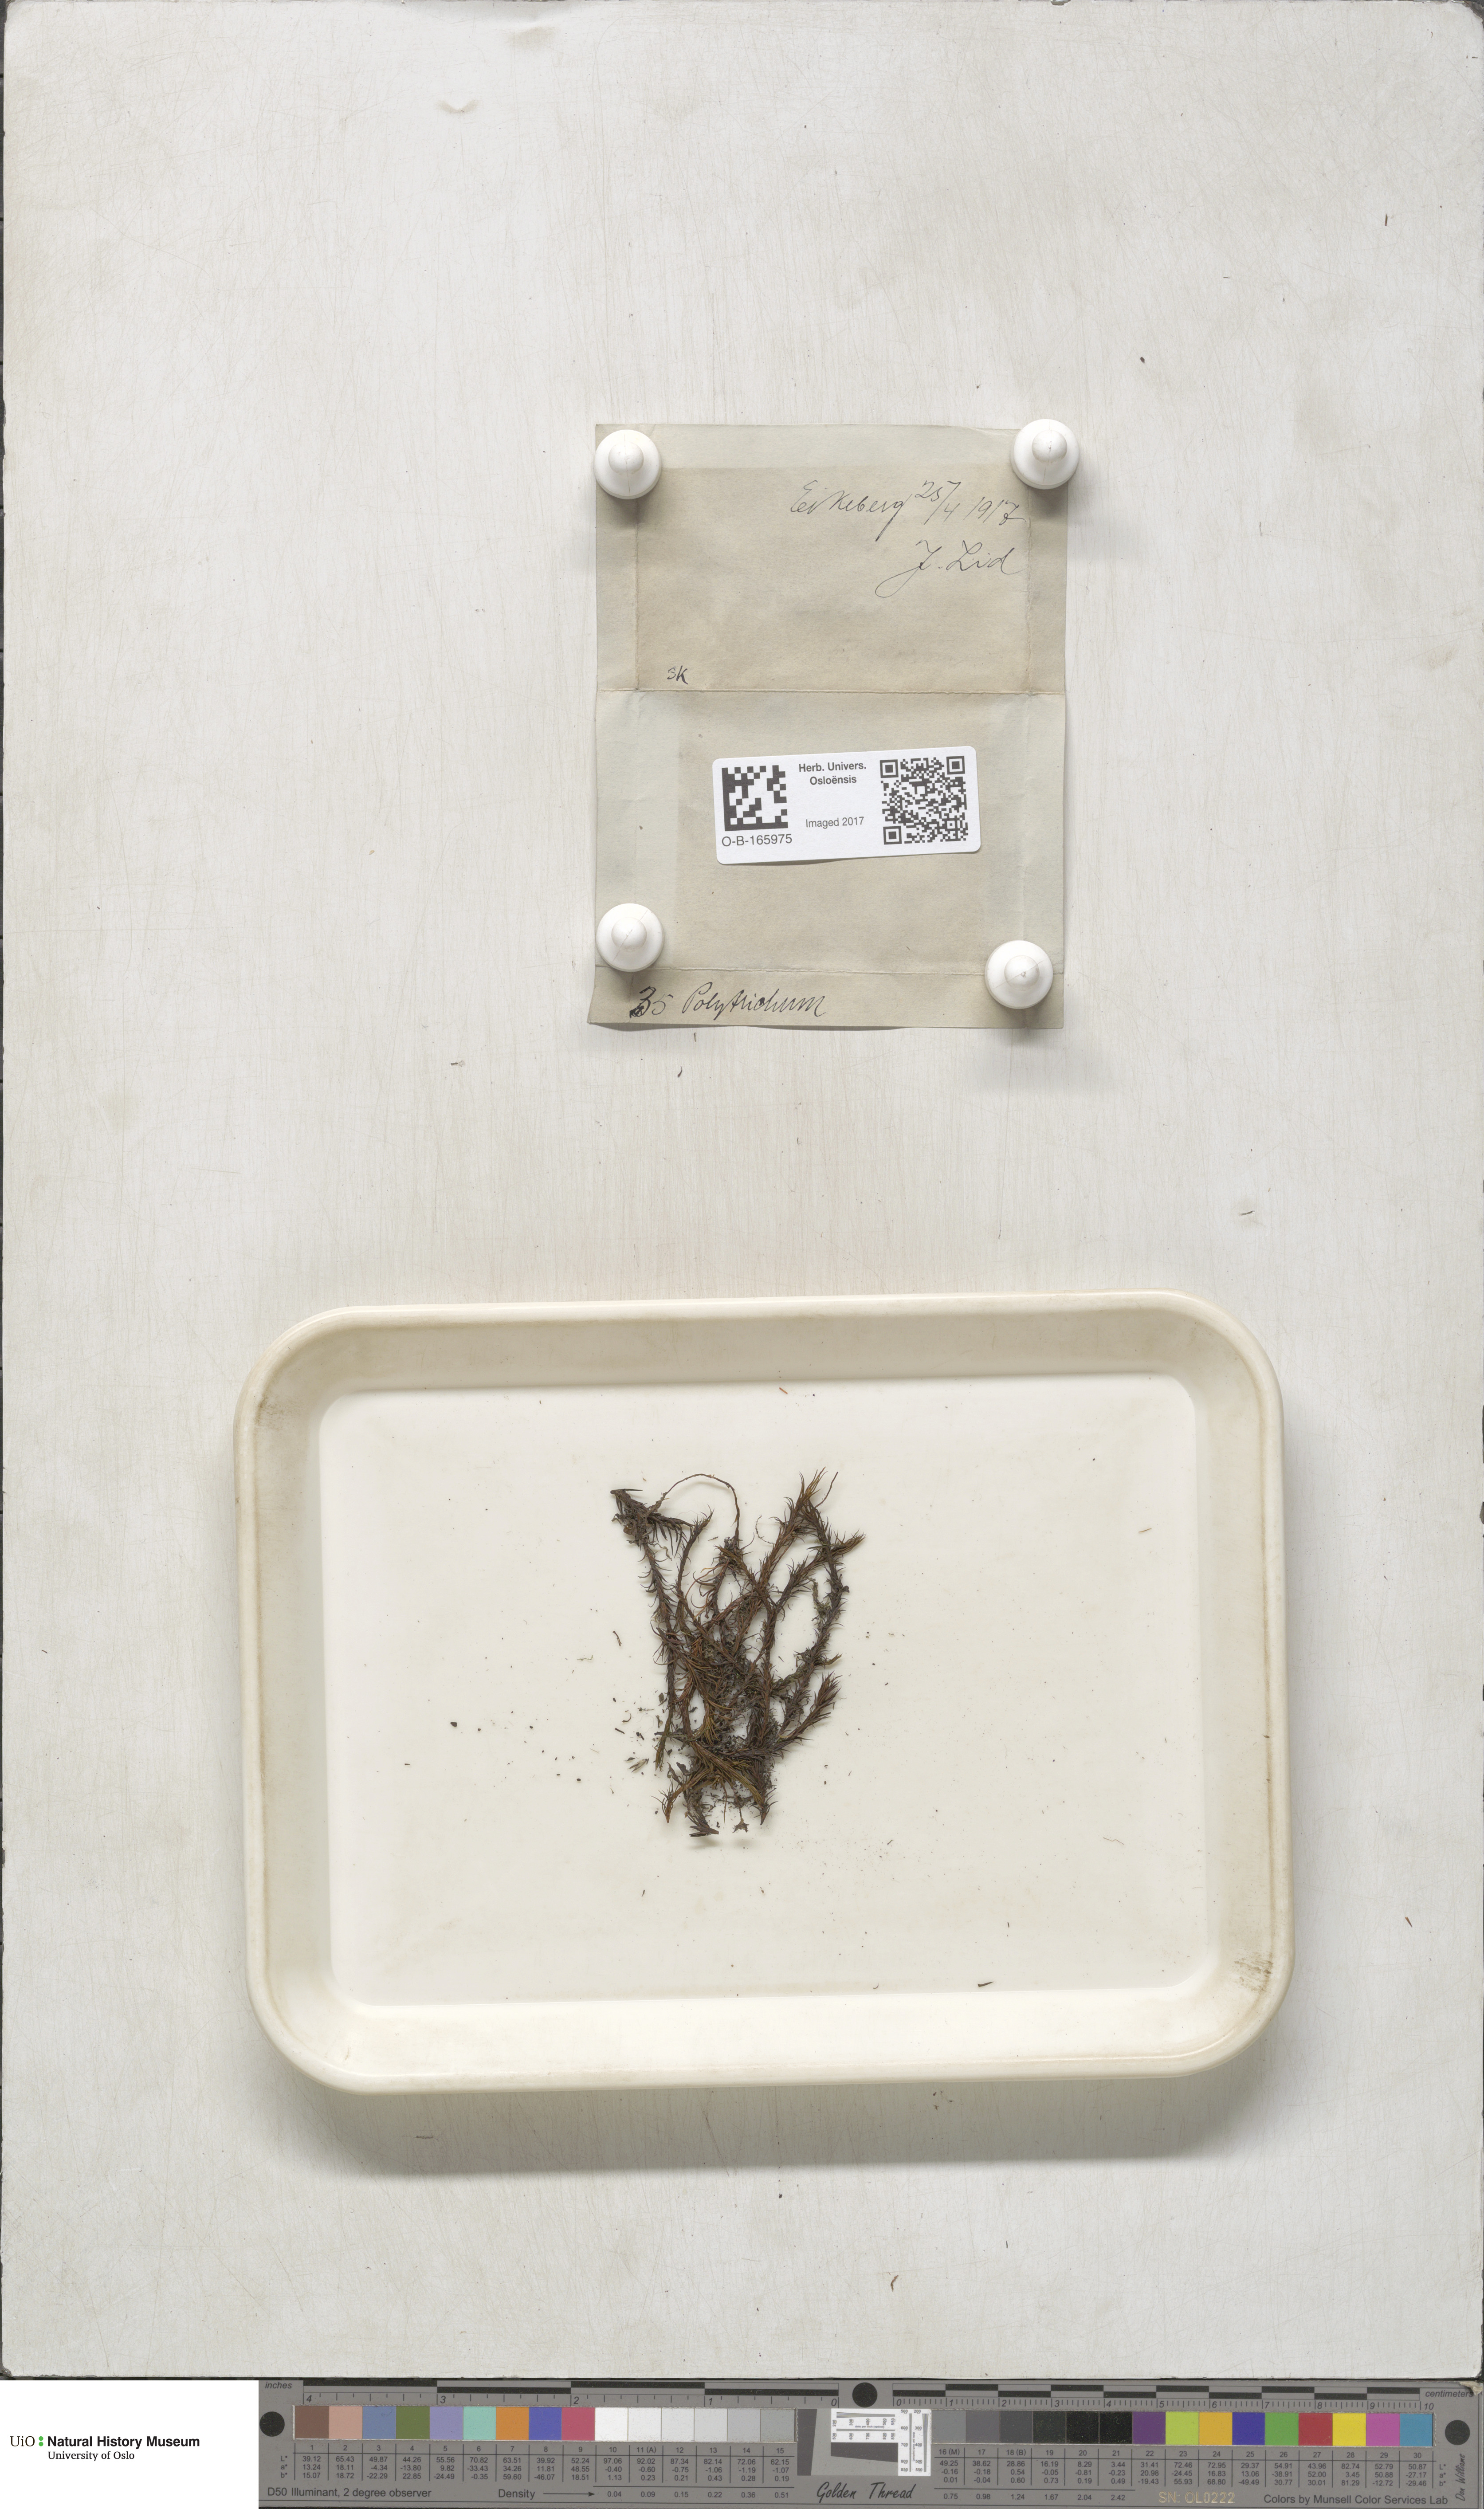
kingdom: Plantae
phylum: Bryophyta
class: Polytrichopsida
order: Polytrichales
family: Polytrichaceae
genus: Polytrichum
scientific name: Polytrichum
